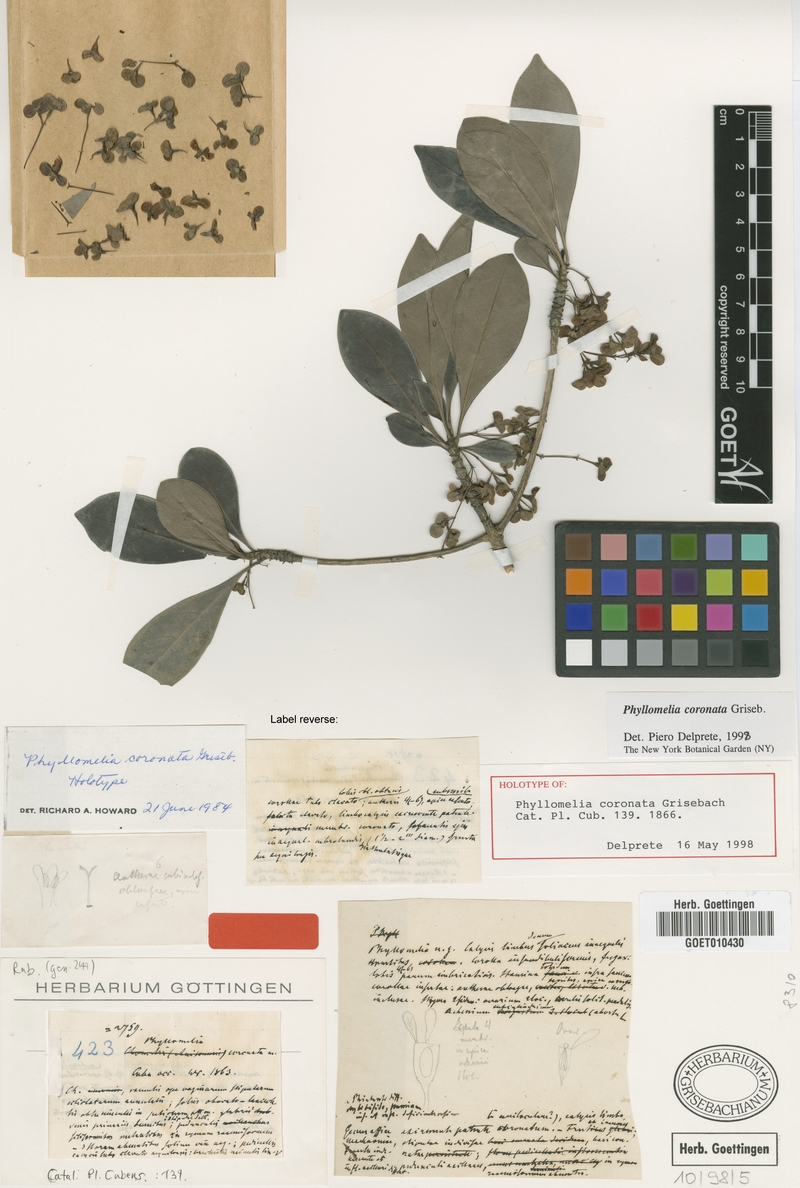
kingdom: Plantae
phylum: Tracheophyta
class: Magnoliopsida
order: Gentianales
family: Rubiaceae
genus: Phyllomelia
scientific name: Phyllomelia coronata
